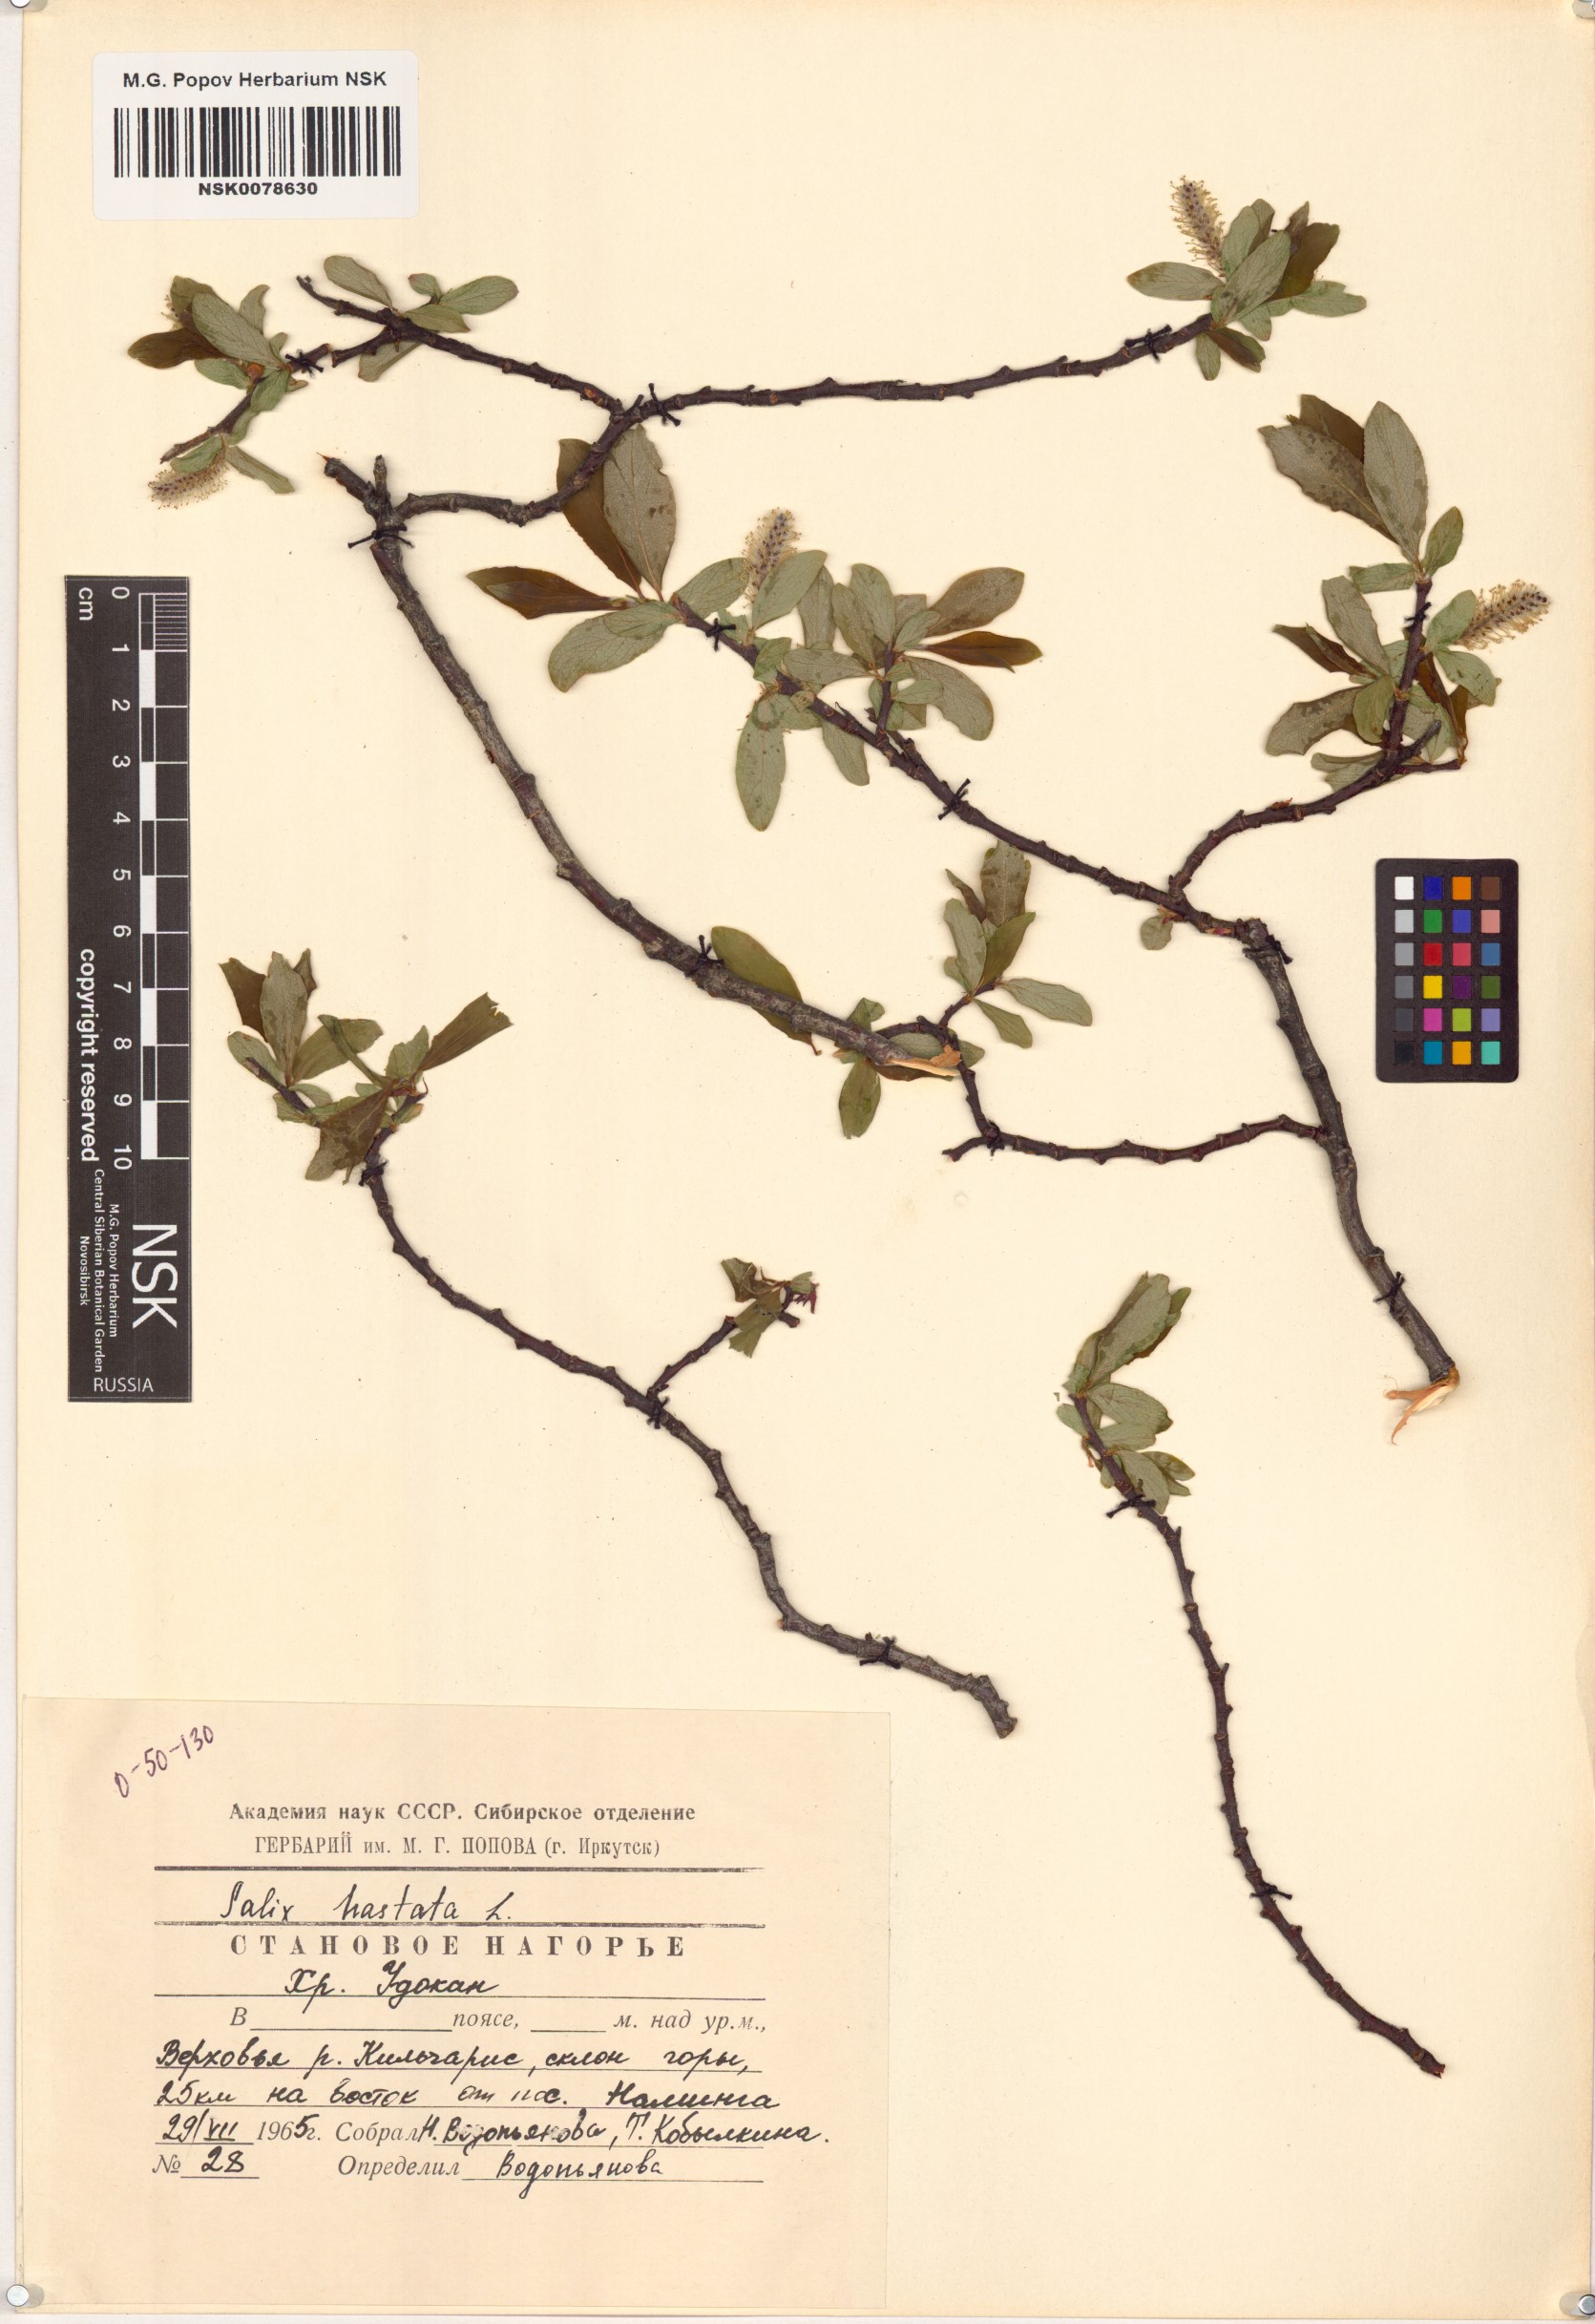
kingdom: Plantae
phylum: Tracheophyta
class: Magnoliopsida
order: Malpighiales
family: Salicaceae
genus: Salix
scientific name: Salix hastata
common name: Halberd willow
